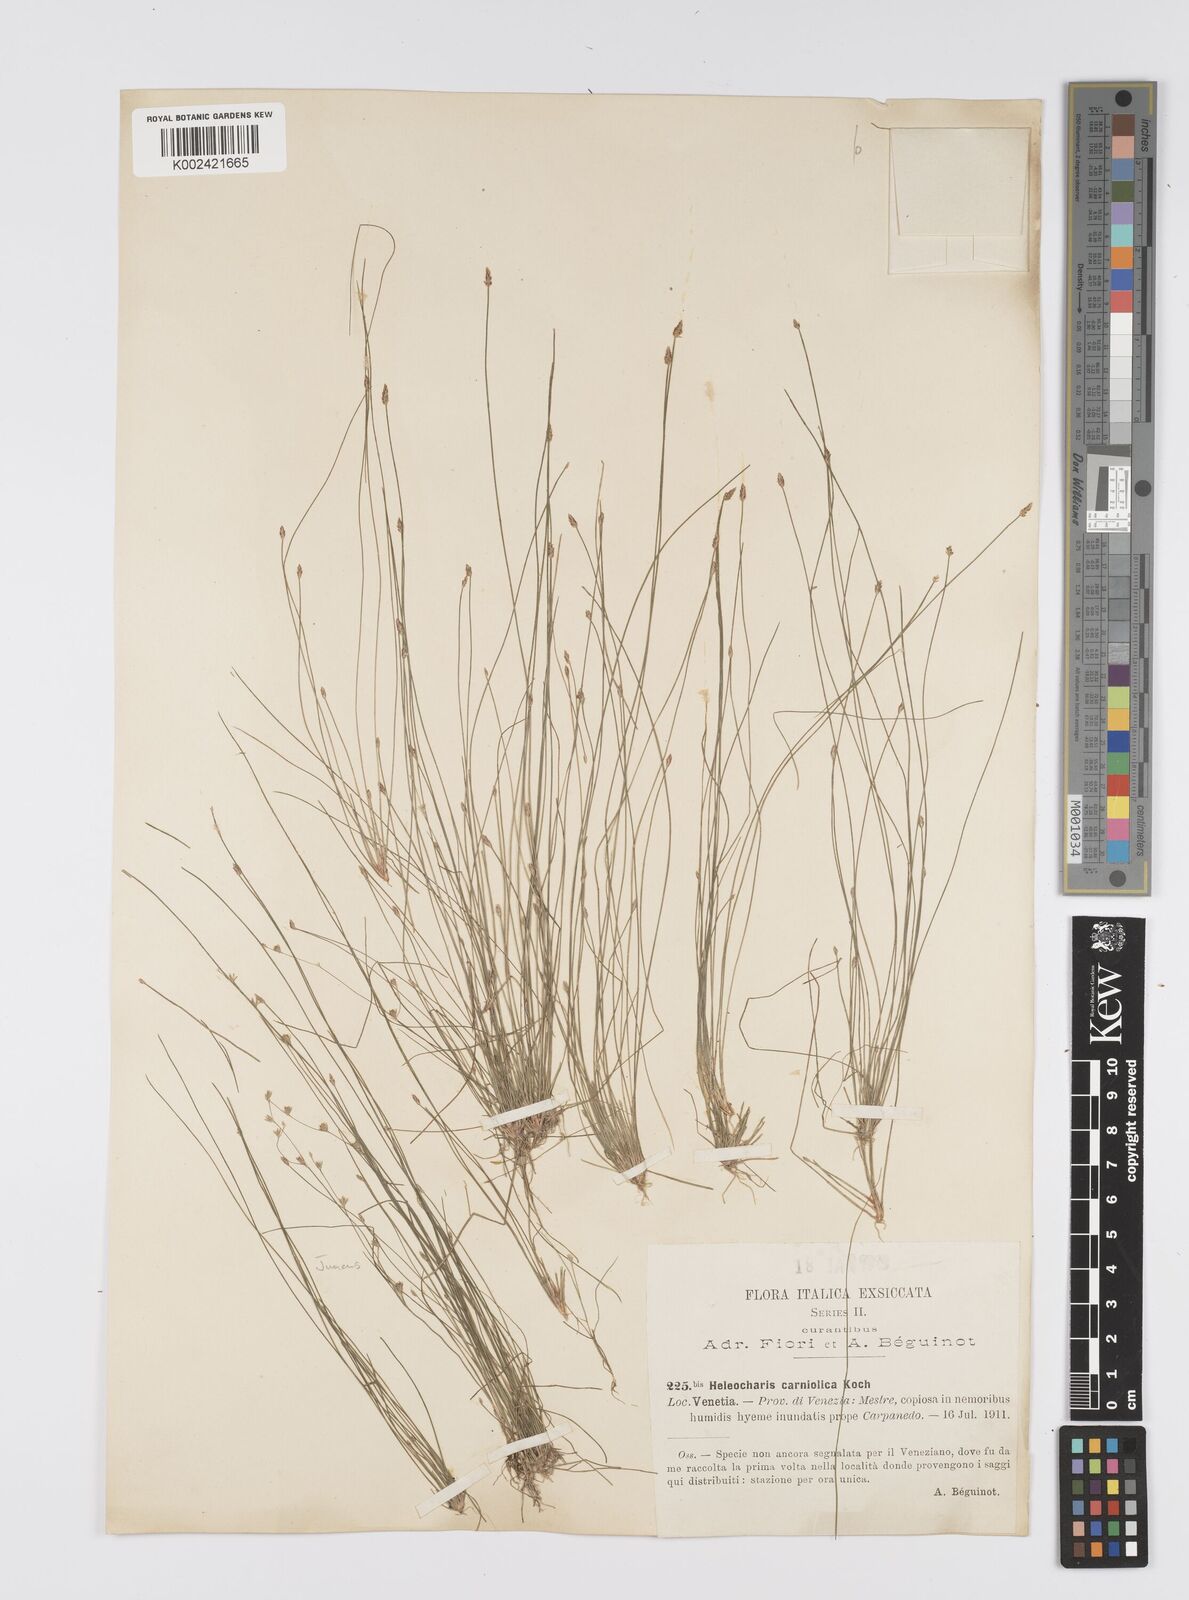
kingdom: Plantae
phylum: Tracheophyta
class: Liliopsida
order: Poales
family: Cyperaceae
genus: Eleocharis
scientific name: Eleocharis carniolica
